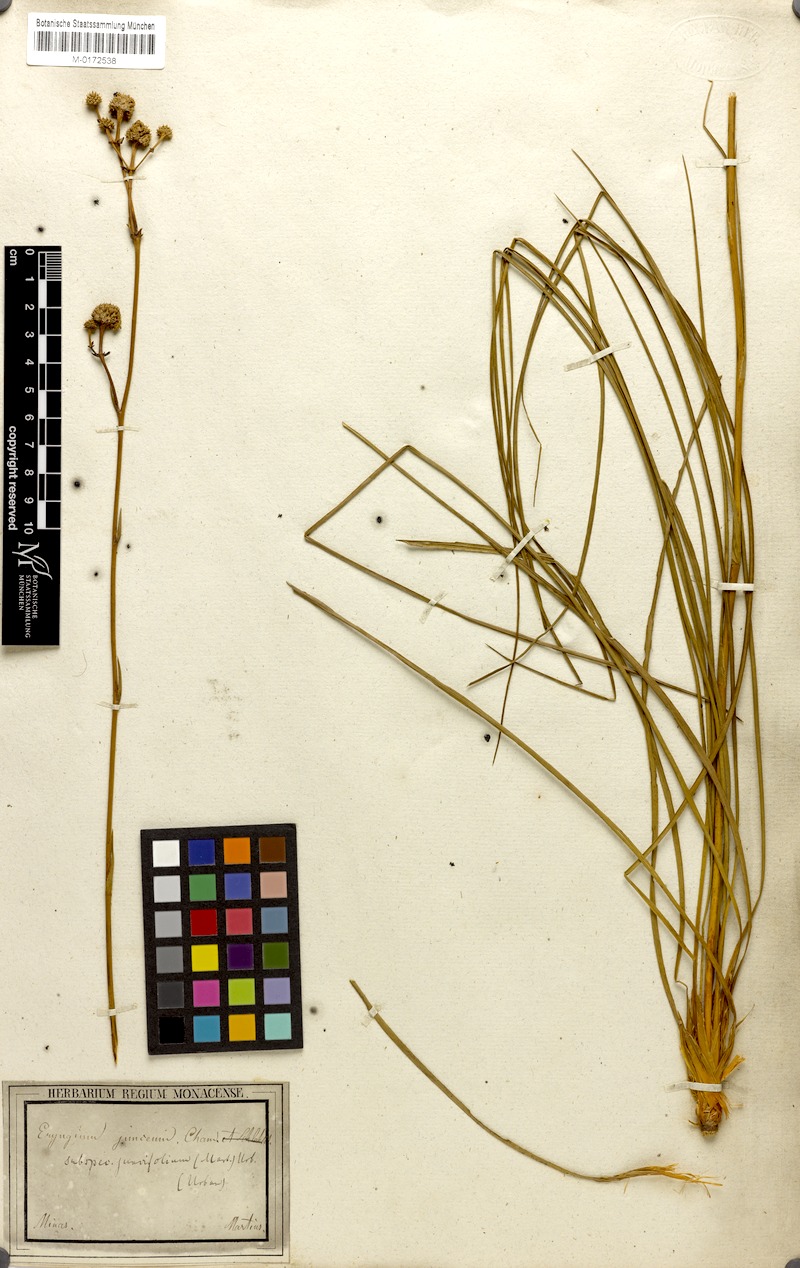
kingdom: Plantae
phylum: Tracheophyta
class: Magnoliopsida
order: Apiales
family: Apiaceae
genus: Eryngium
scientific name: Eryngium juncifolium
